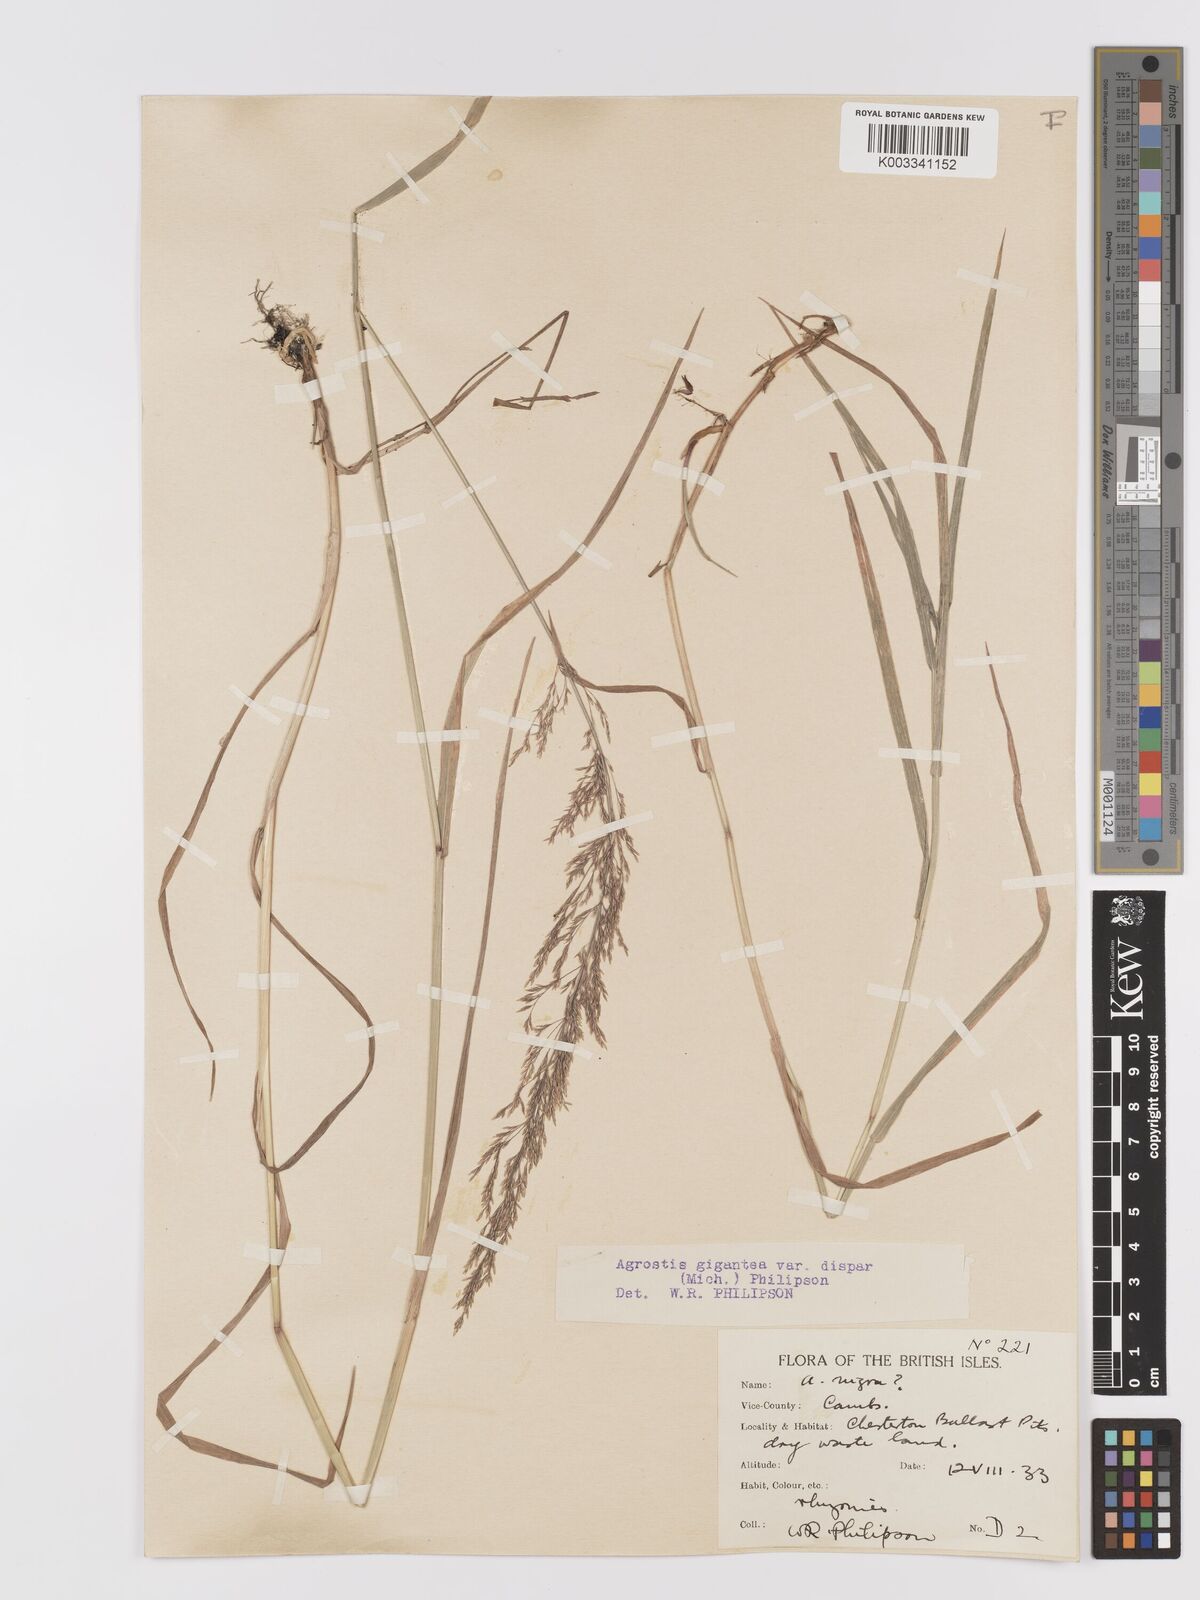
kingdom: Plantae
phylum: Tracheophyta
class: Liliopsida
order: Poales
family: Poaceae
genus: Agrostis
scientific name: Agrostis gigantea
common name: Black bent
